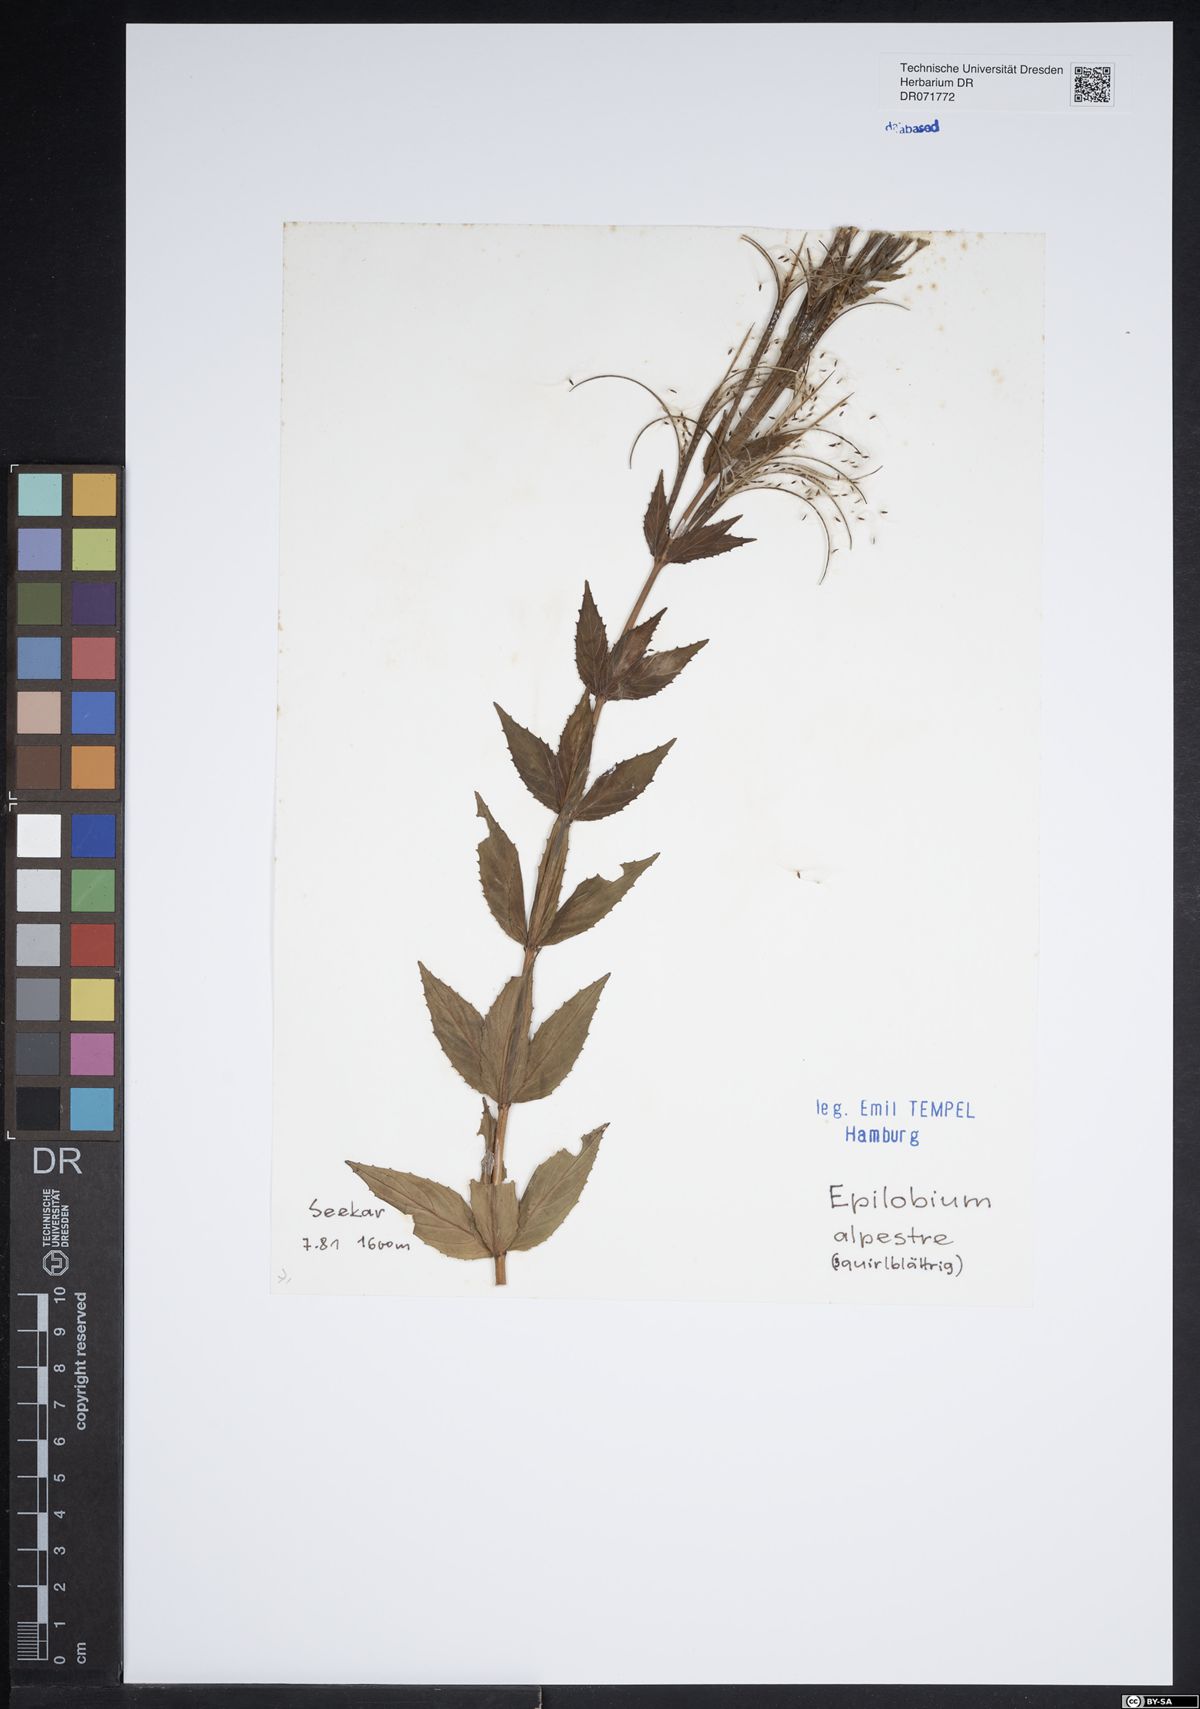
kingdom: Plantae
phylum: Tracheophyta
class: Magnoliopsida
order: Myrtales
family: Onagraceae
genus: Epilobium
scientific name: Epilobium alpestre
